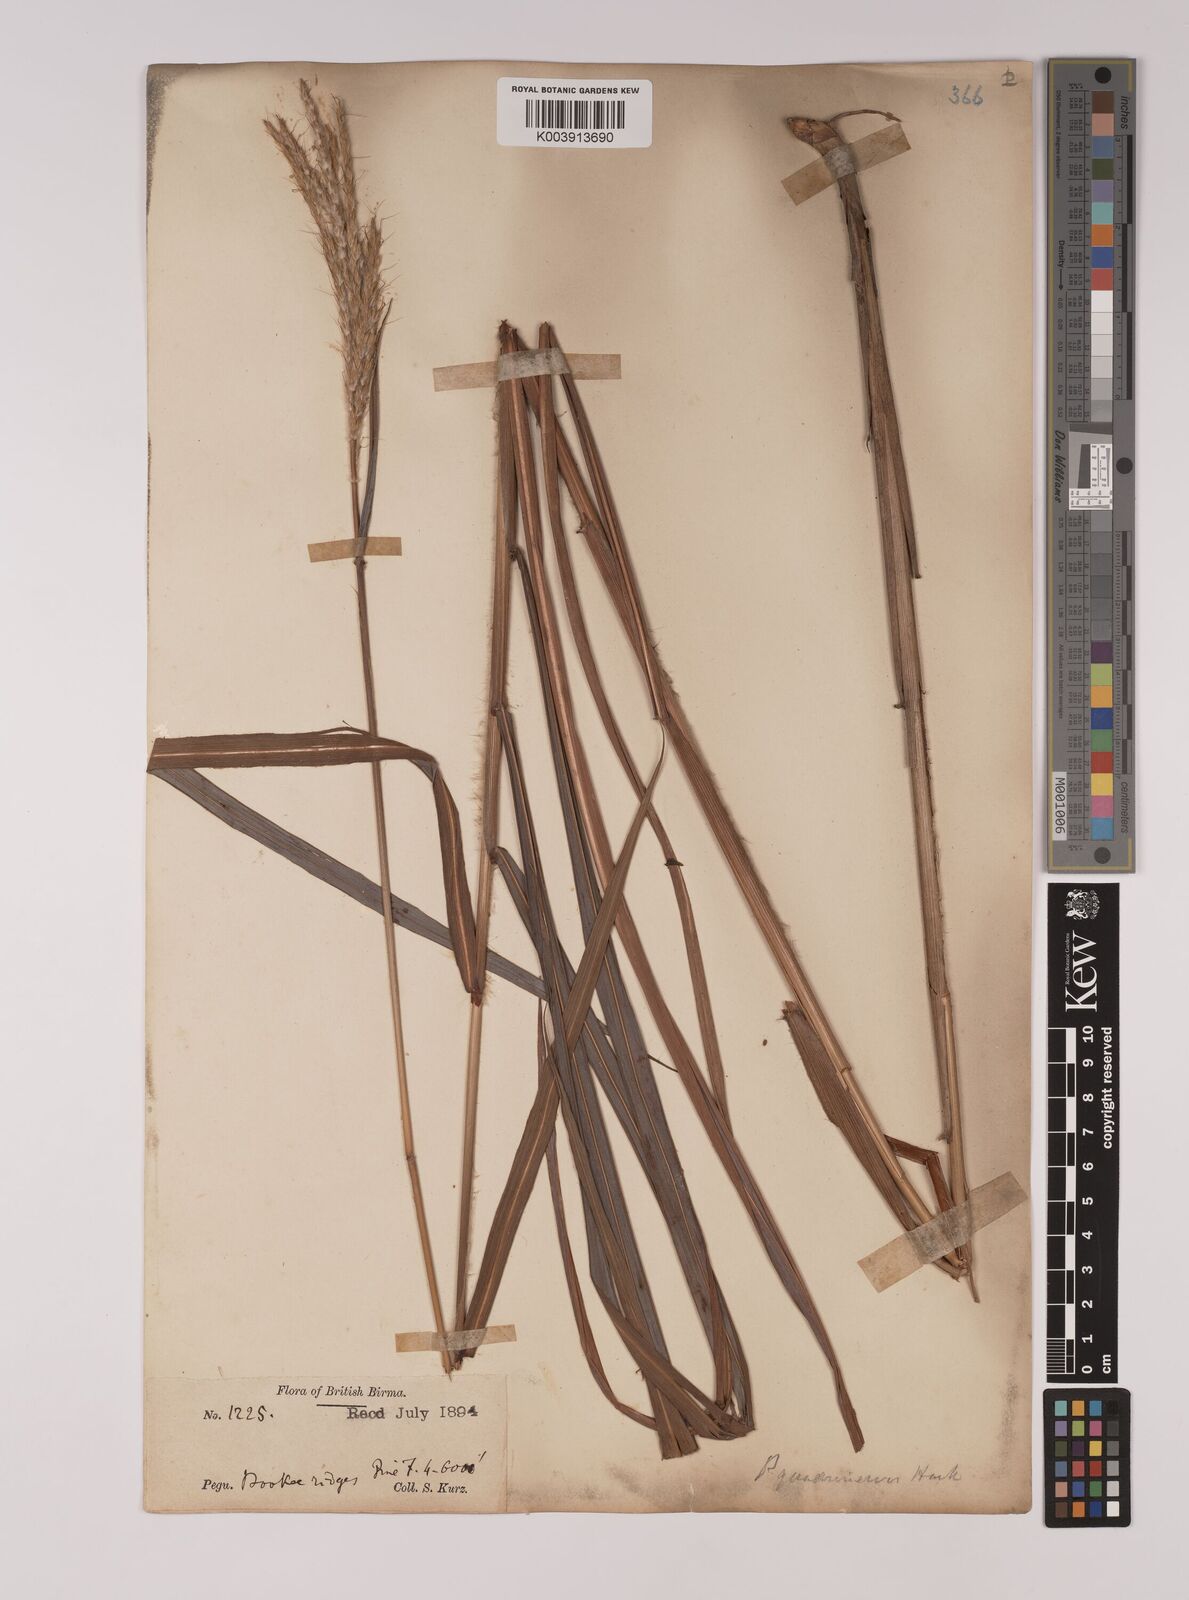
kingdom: Plantae
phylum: Tracheophyta
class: Liliopsida
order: Poales
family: Poaceae
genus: Pseudopogonatherum
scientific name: Pseudopogonatherum quadrinerve
